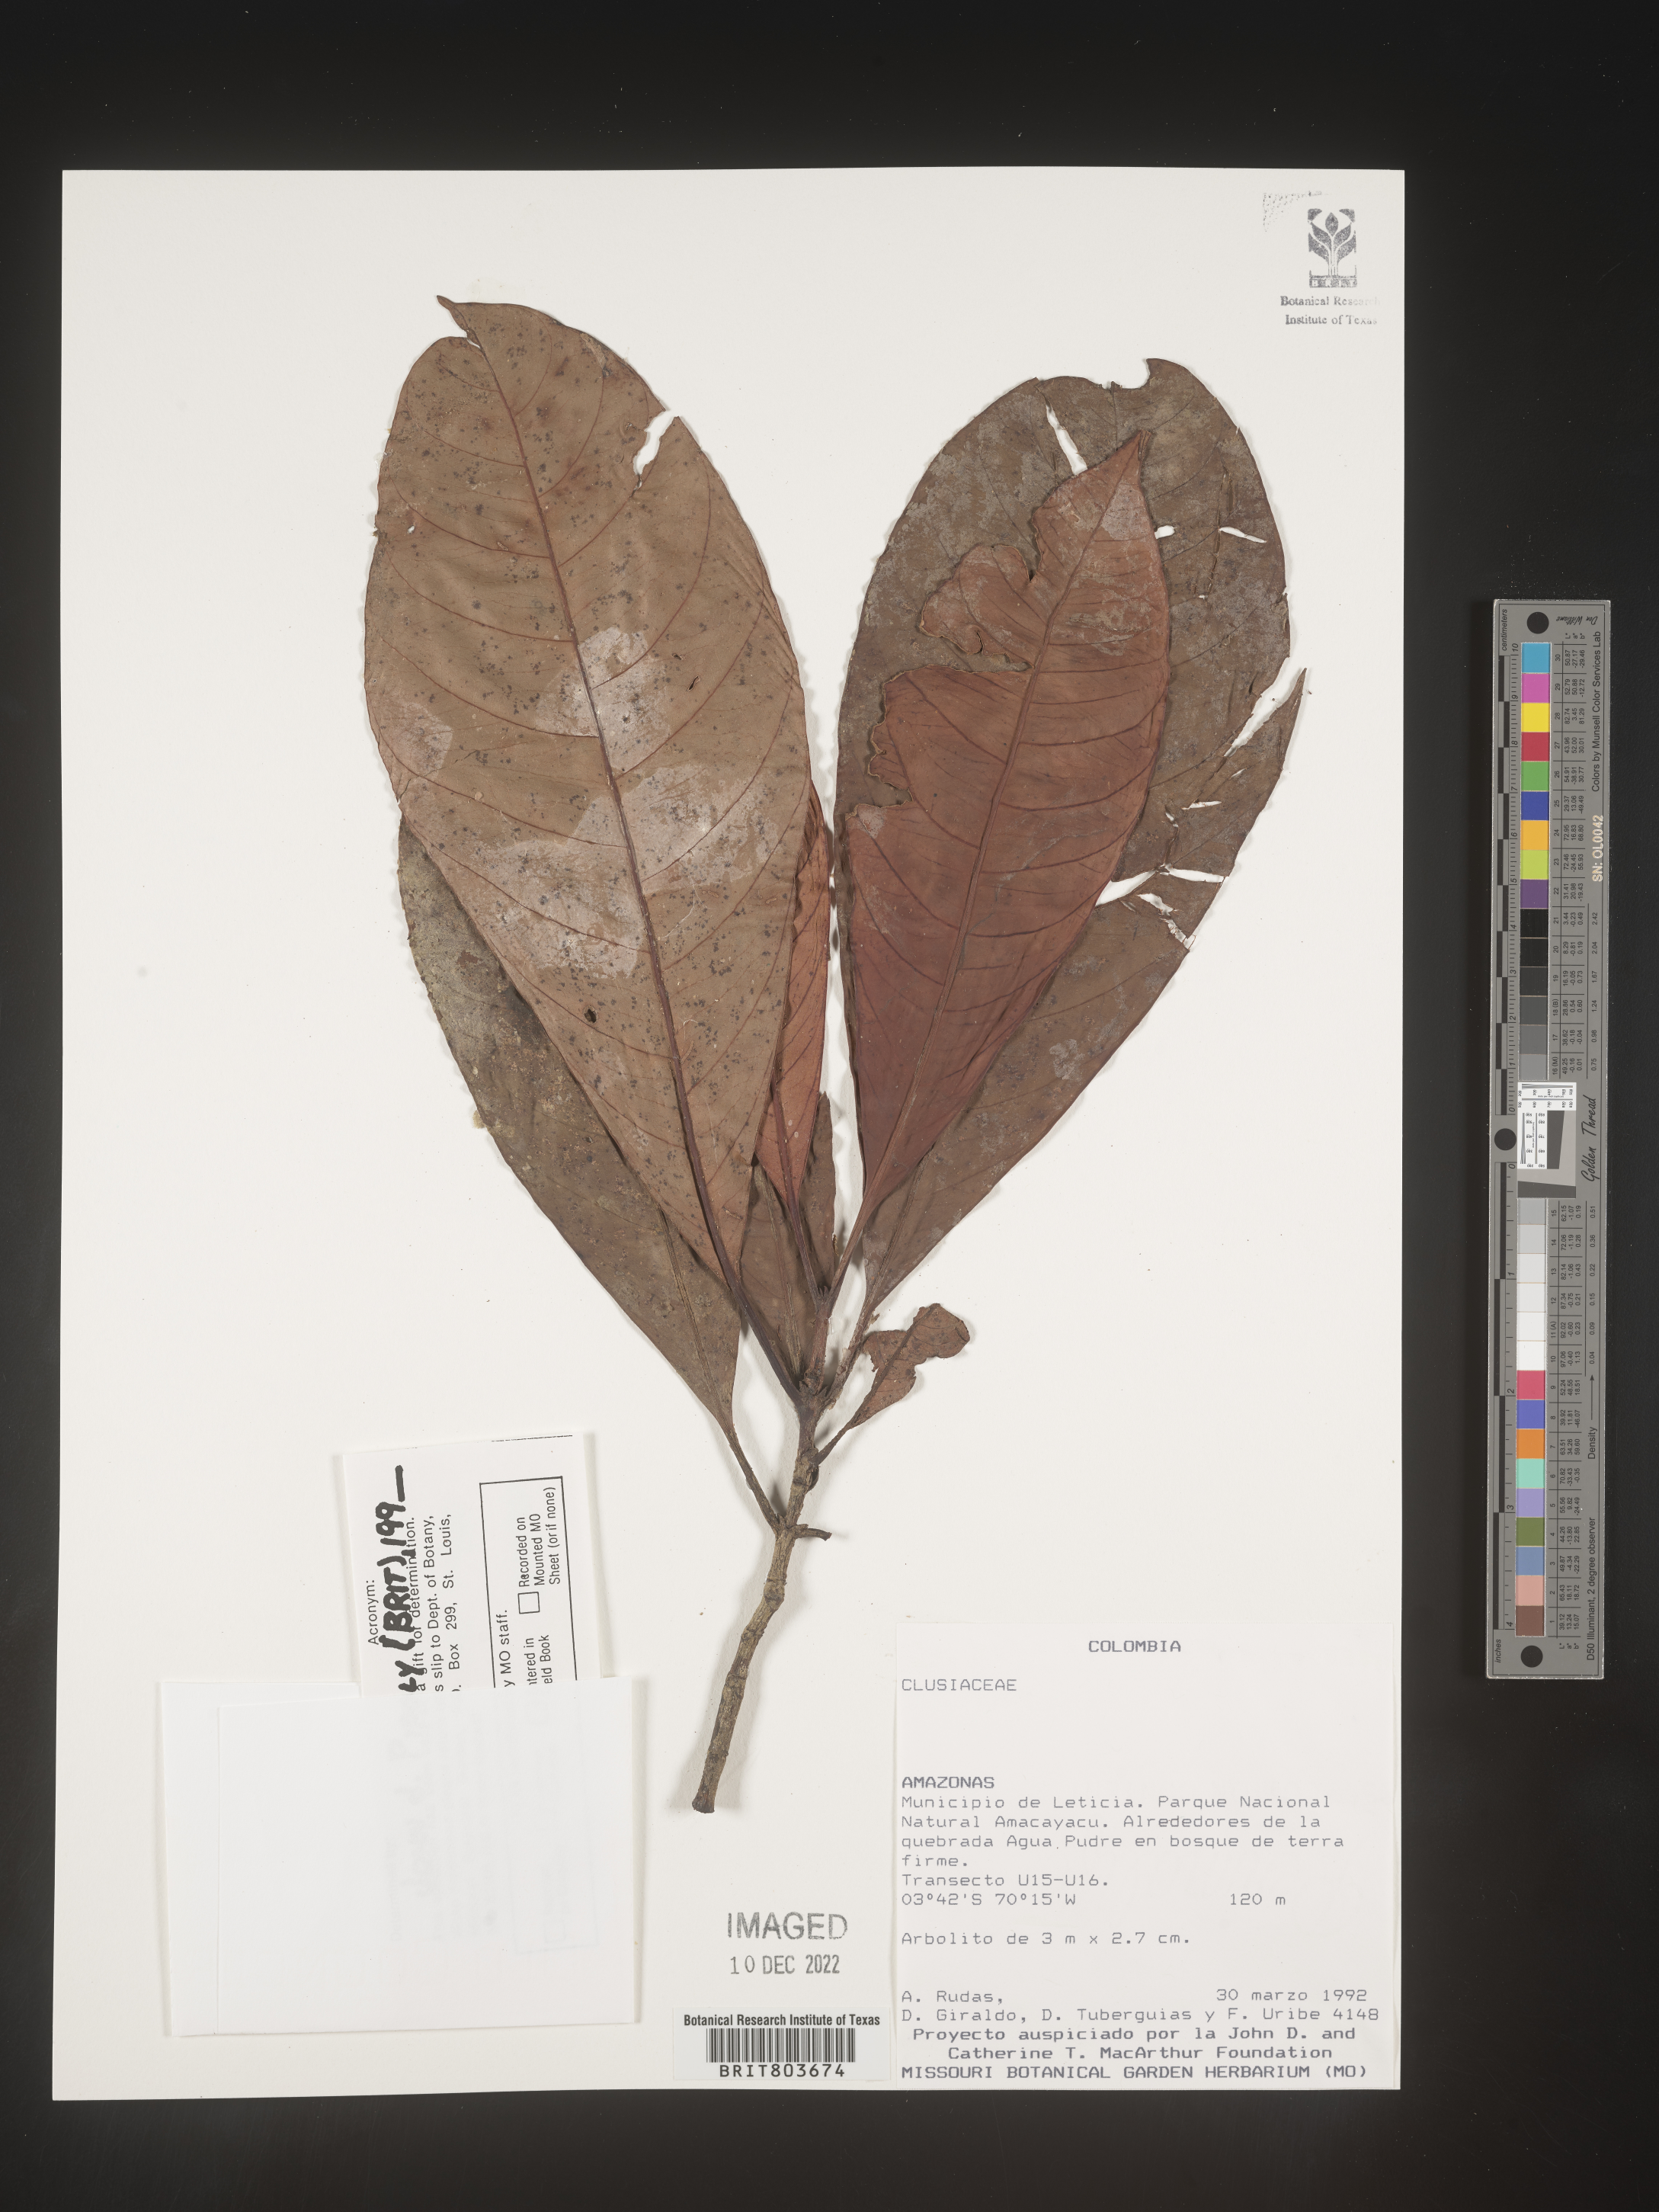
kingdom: Plantae
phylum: Tracheophyta
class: Magnoliopsida
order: Malpighiales
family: Clusiaceae
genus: Tovomita
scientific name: Tovomita
